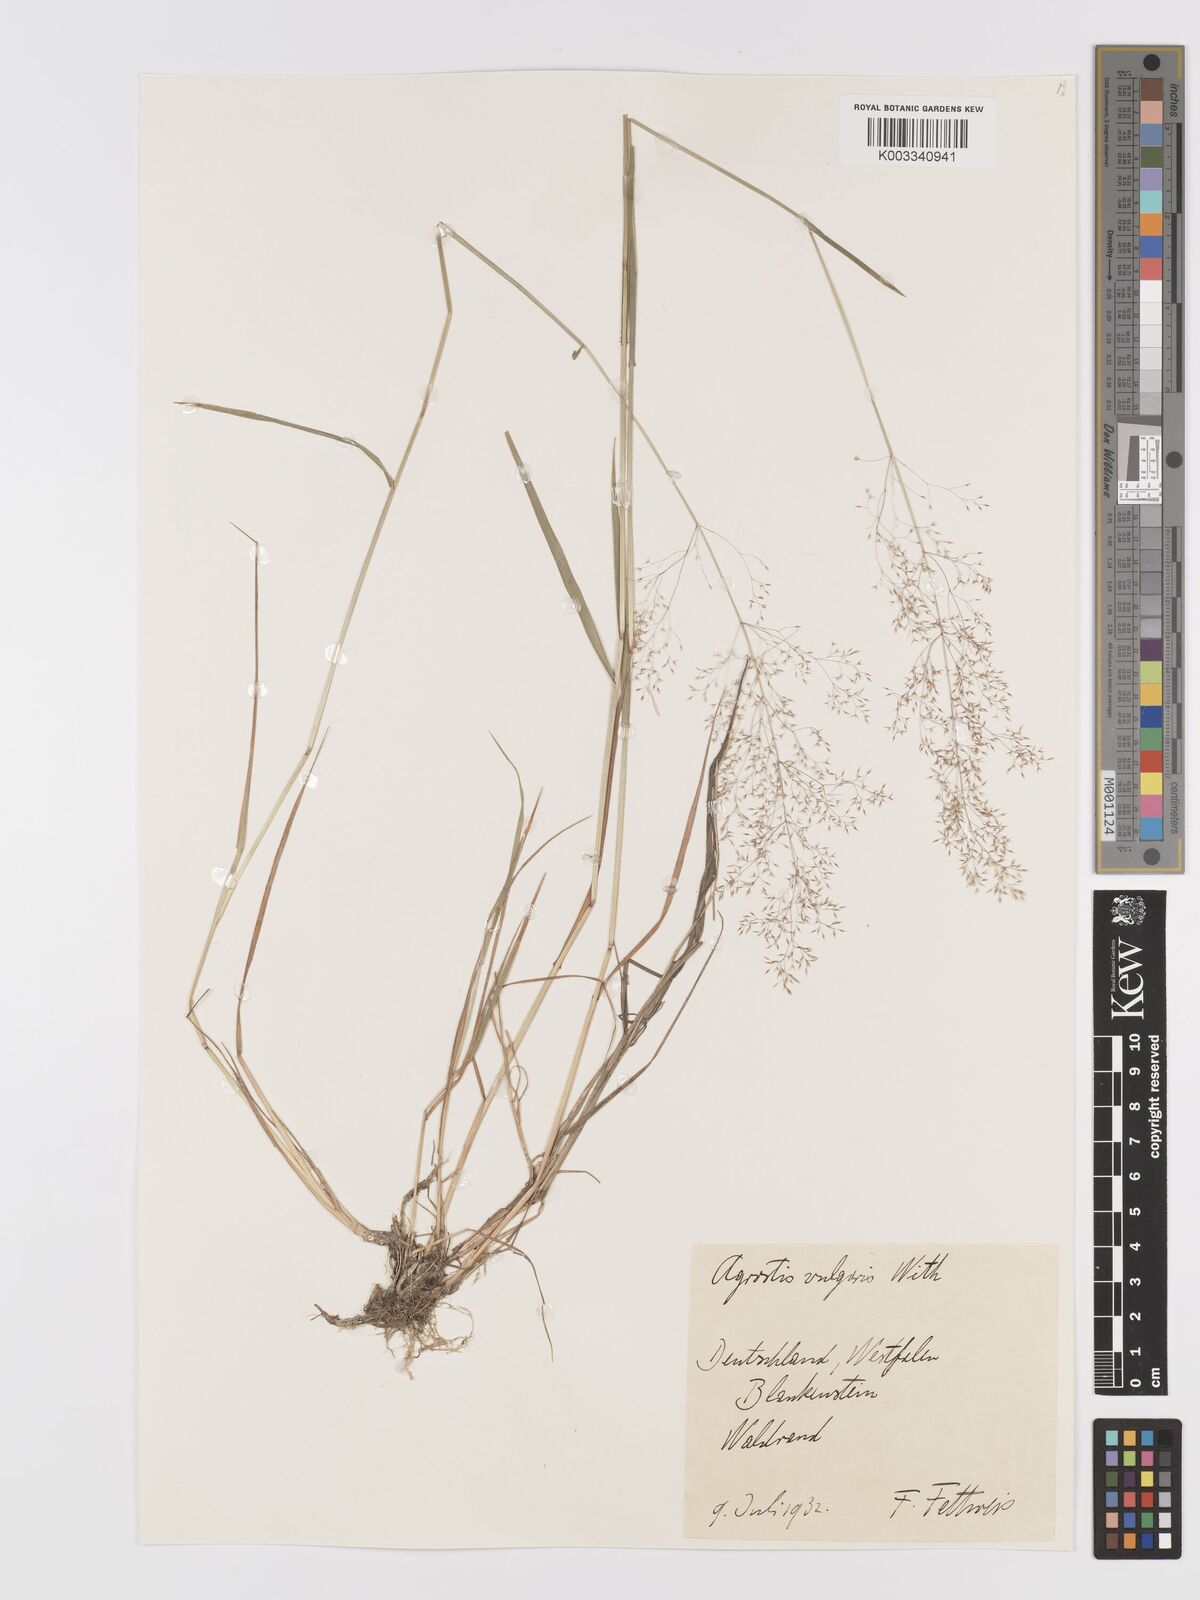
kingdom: Plantae
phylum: Tracheophyta
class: Liliopsida
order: Poales
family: Poaceae
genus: Agrostis
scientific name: Agrostis capillaris
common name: Colonial bentgrass
